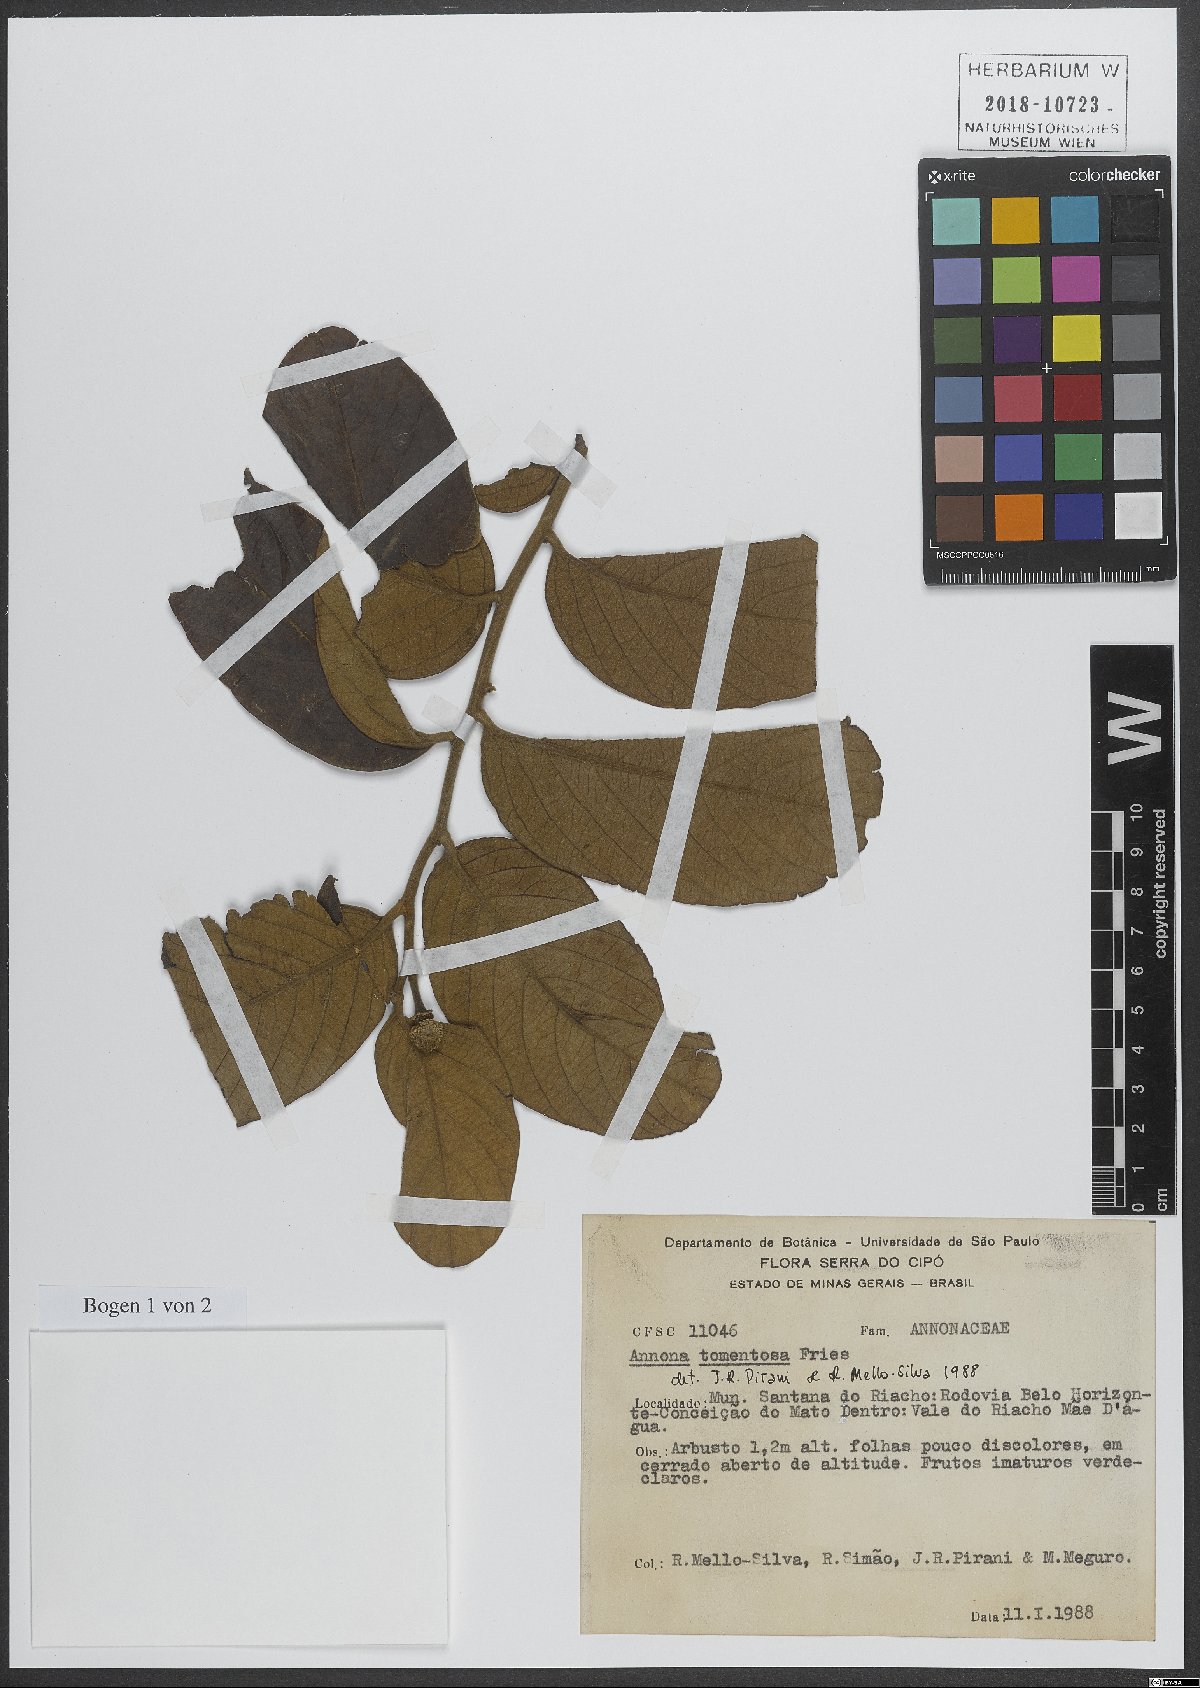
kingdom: Plantae
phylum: Tracheophyta
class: Magnoliopsida
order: Magnoliales
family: Annonaceae
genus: Annona
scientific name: Annona tomentosa
